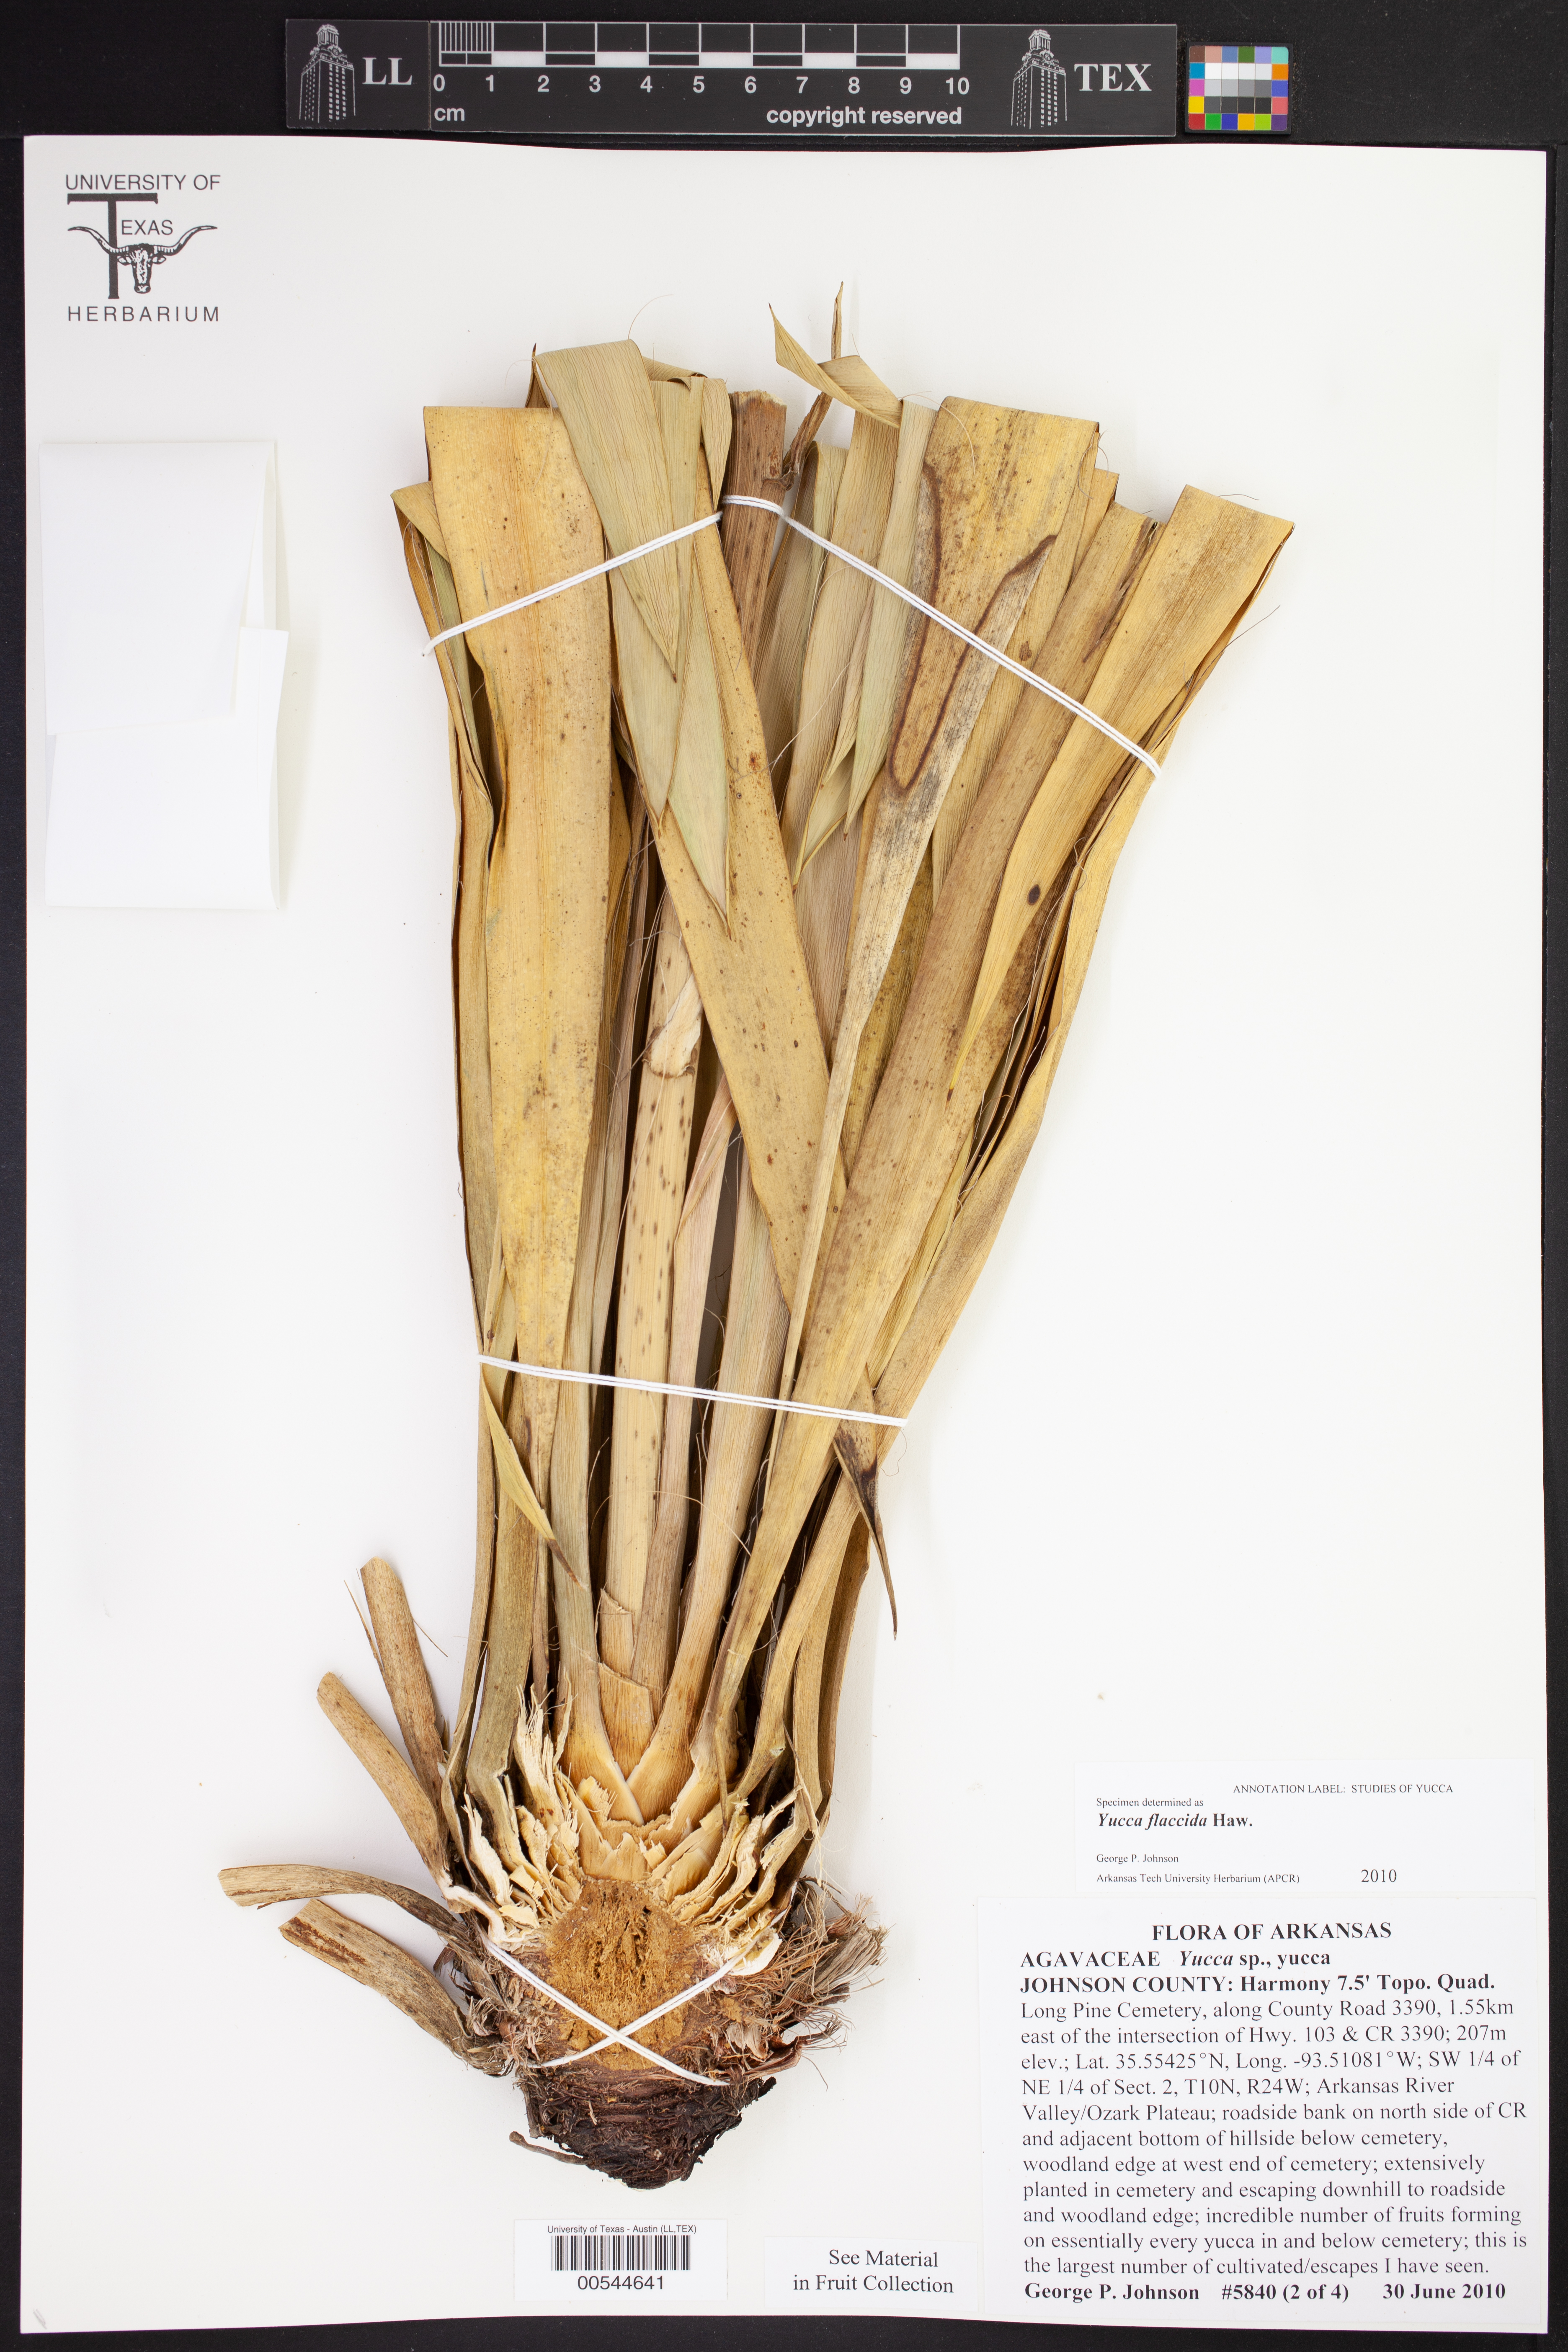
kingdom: Plantae
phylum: Tracheophyta
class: Liliopsida
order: Asparagales
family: Asparagaceae
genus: Yucca
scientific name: Yucca flaccida
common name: Adam's-needle
